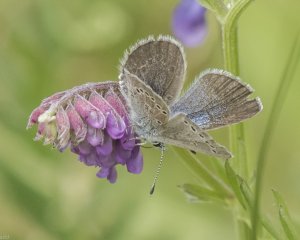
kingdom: Animalia
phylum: Arthropoda
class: Insecta
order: Lepidoptera
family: Lycaenidae
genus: Glaucopsyche
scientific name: Glaucopsyche lygdamus
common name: Silvery Blue
